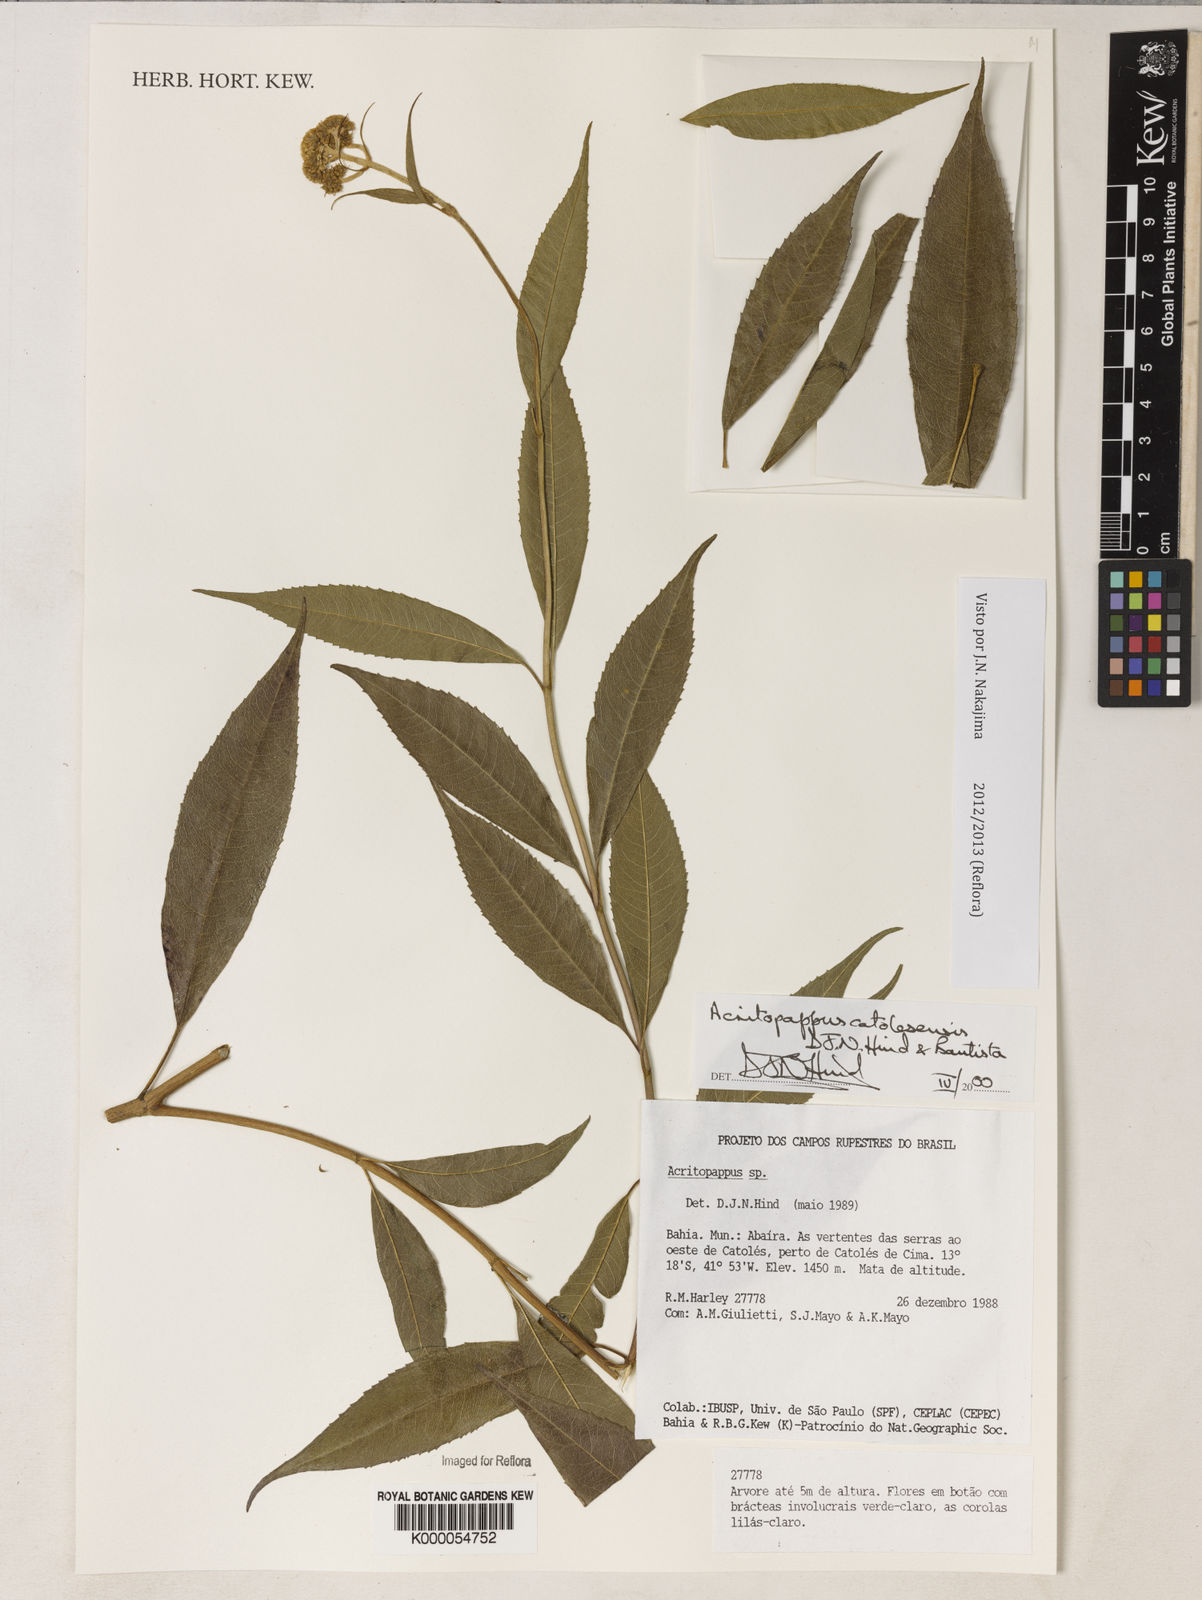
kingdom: Plantae
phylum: Tracheophyta
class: Magnoliopsida
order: Asterales
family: Asteraceae
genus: Acritopappus
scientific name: Acritopappus catolesensis
